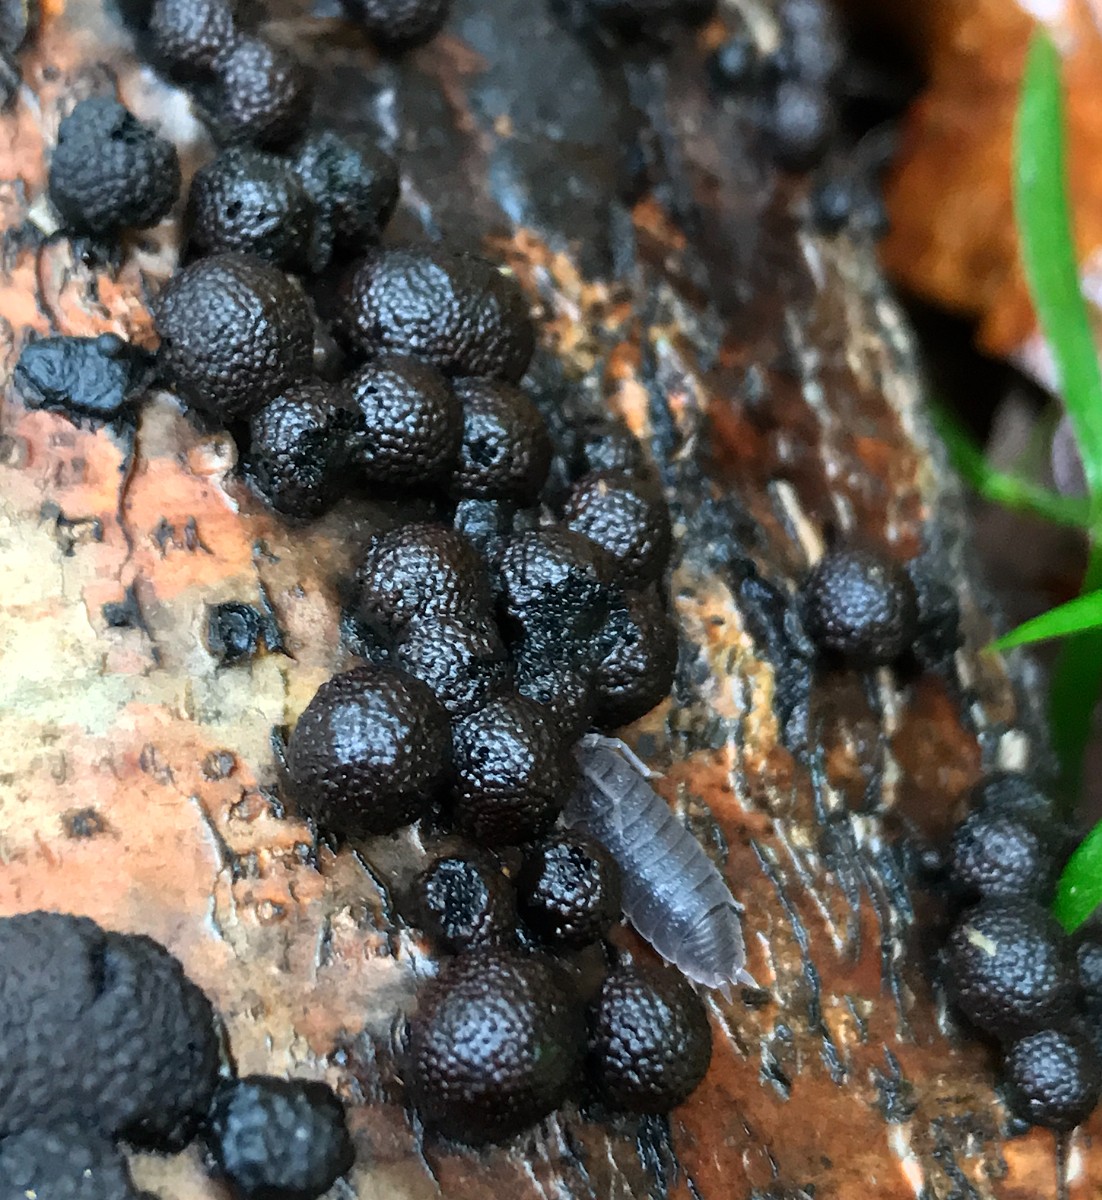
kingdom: Fungi
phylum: Ascomycota
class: Sordariomycetes
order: Xylariales
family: Hypoxylaceae
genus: Hypoxylon
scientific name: Hypoxylon fragiforme
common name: kuljordbær
